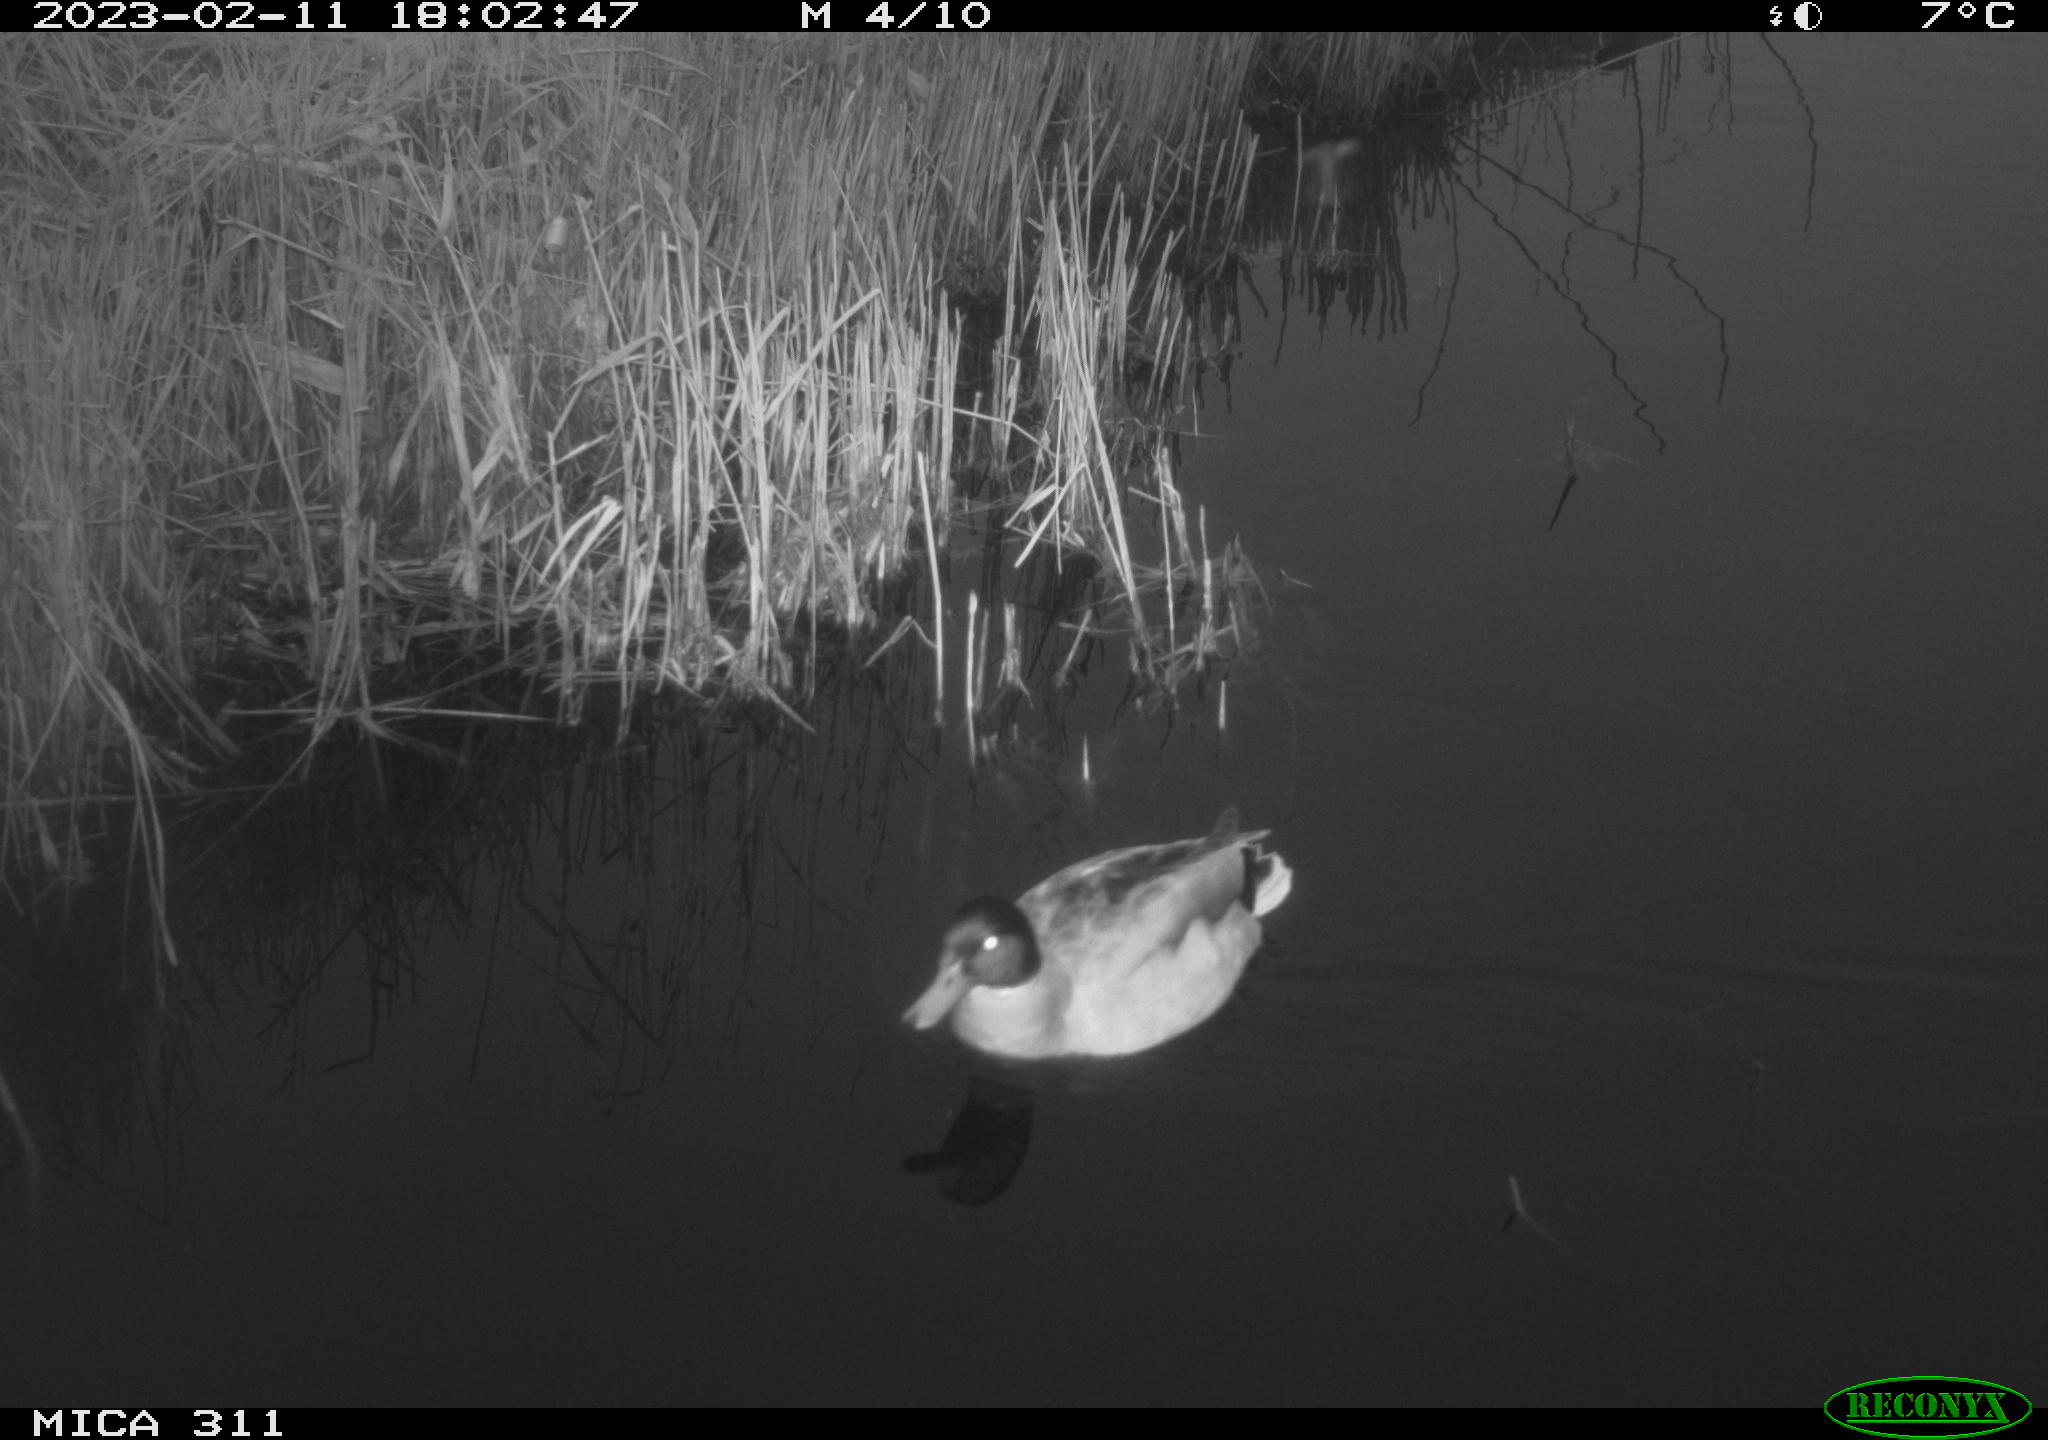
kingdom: Animalia
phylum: Chordata
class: Aves
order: Anseriformes
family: Anatidae
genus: Anas
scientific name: Anas
